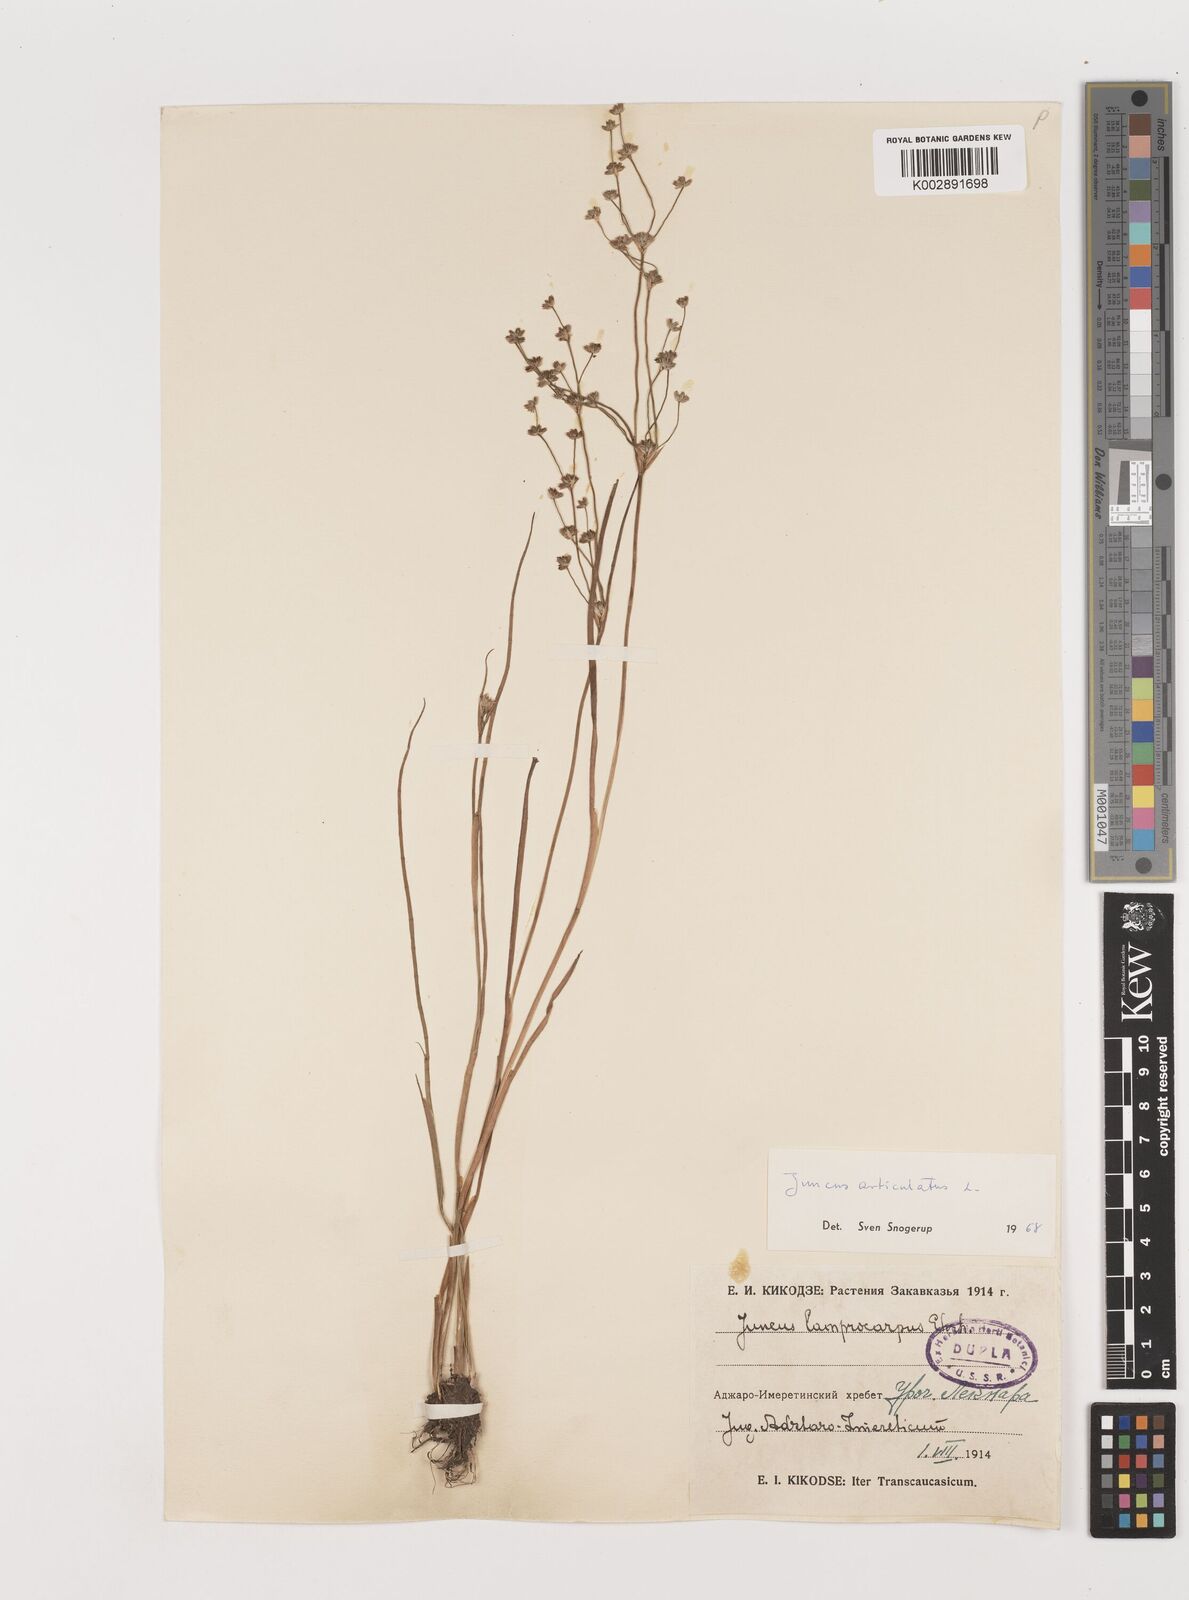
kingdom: Plantae
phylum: Tracheophyta
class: Liliopsida
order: Poales
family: Juncaceae
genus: Juncus
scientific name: Juncus astreptus
